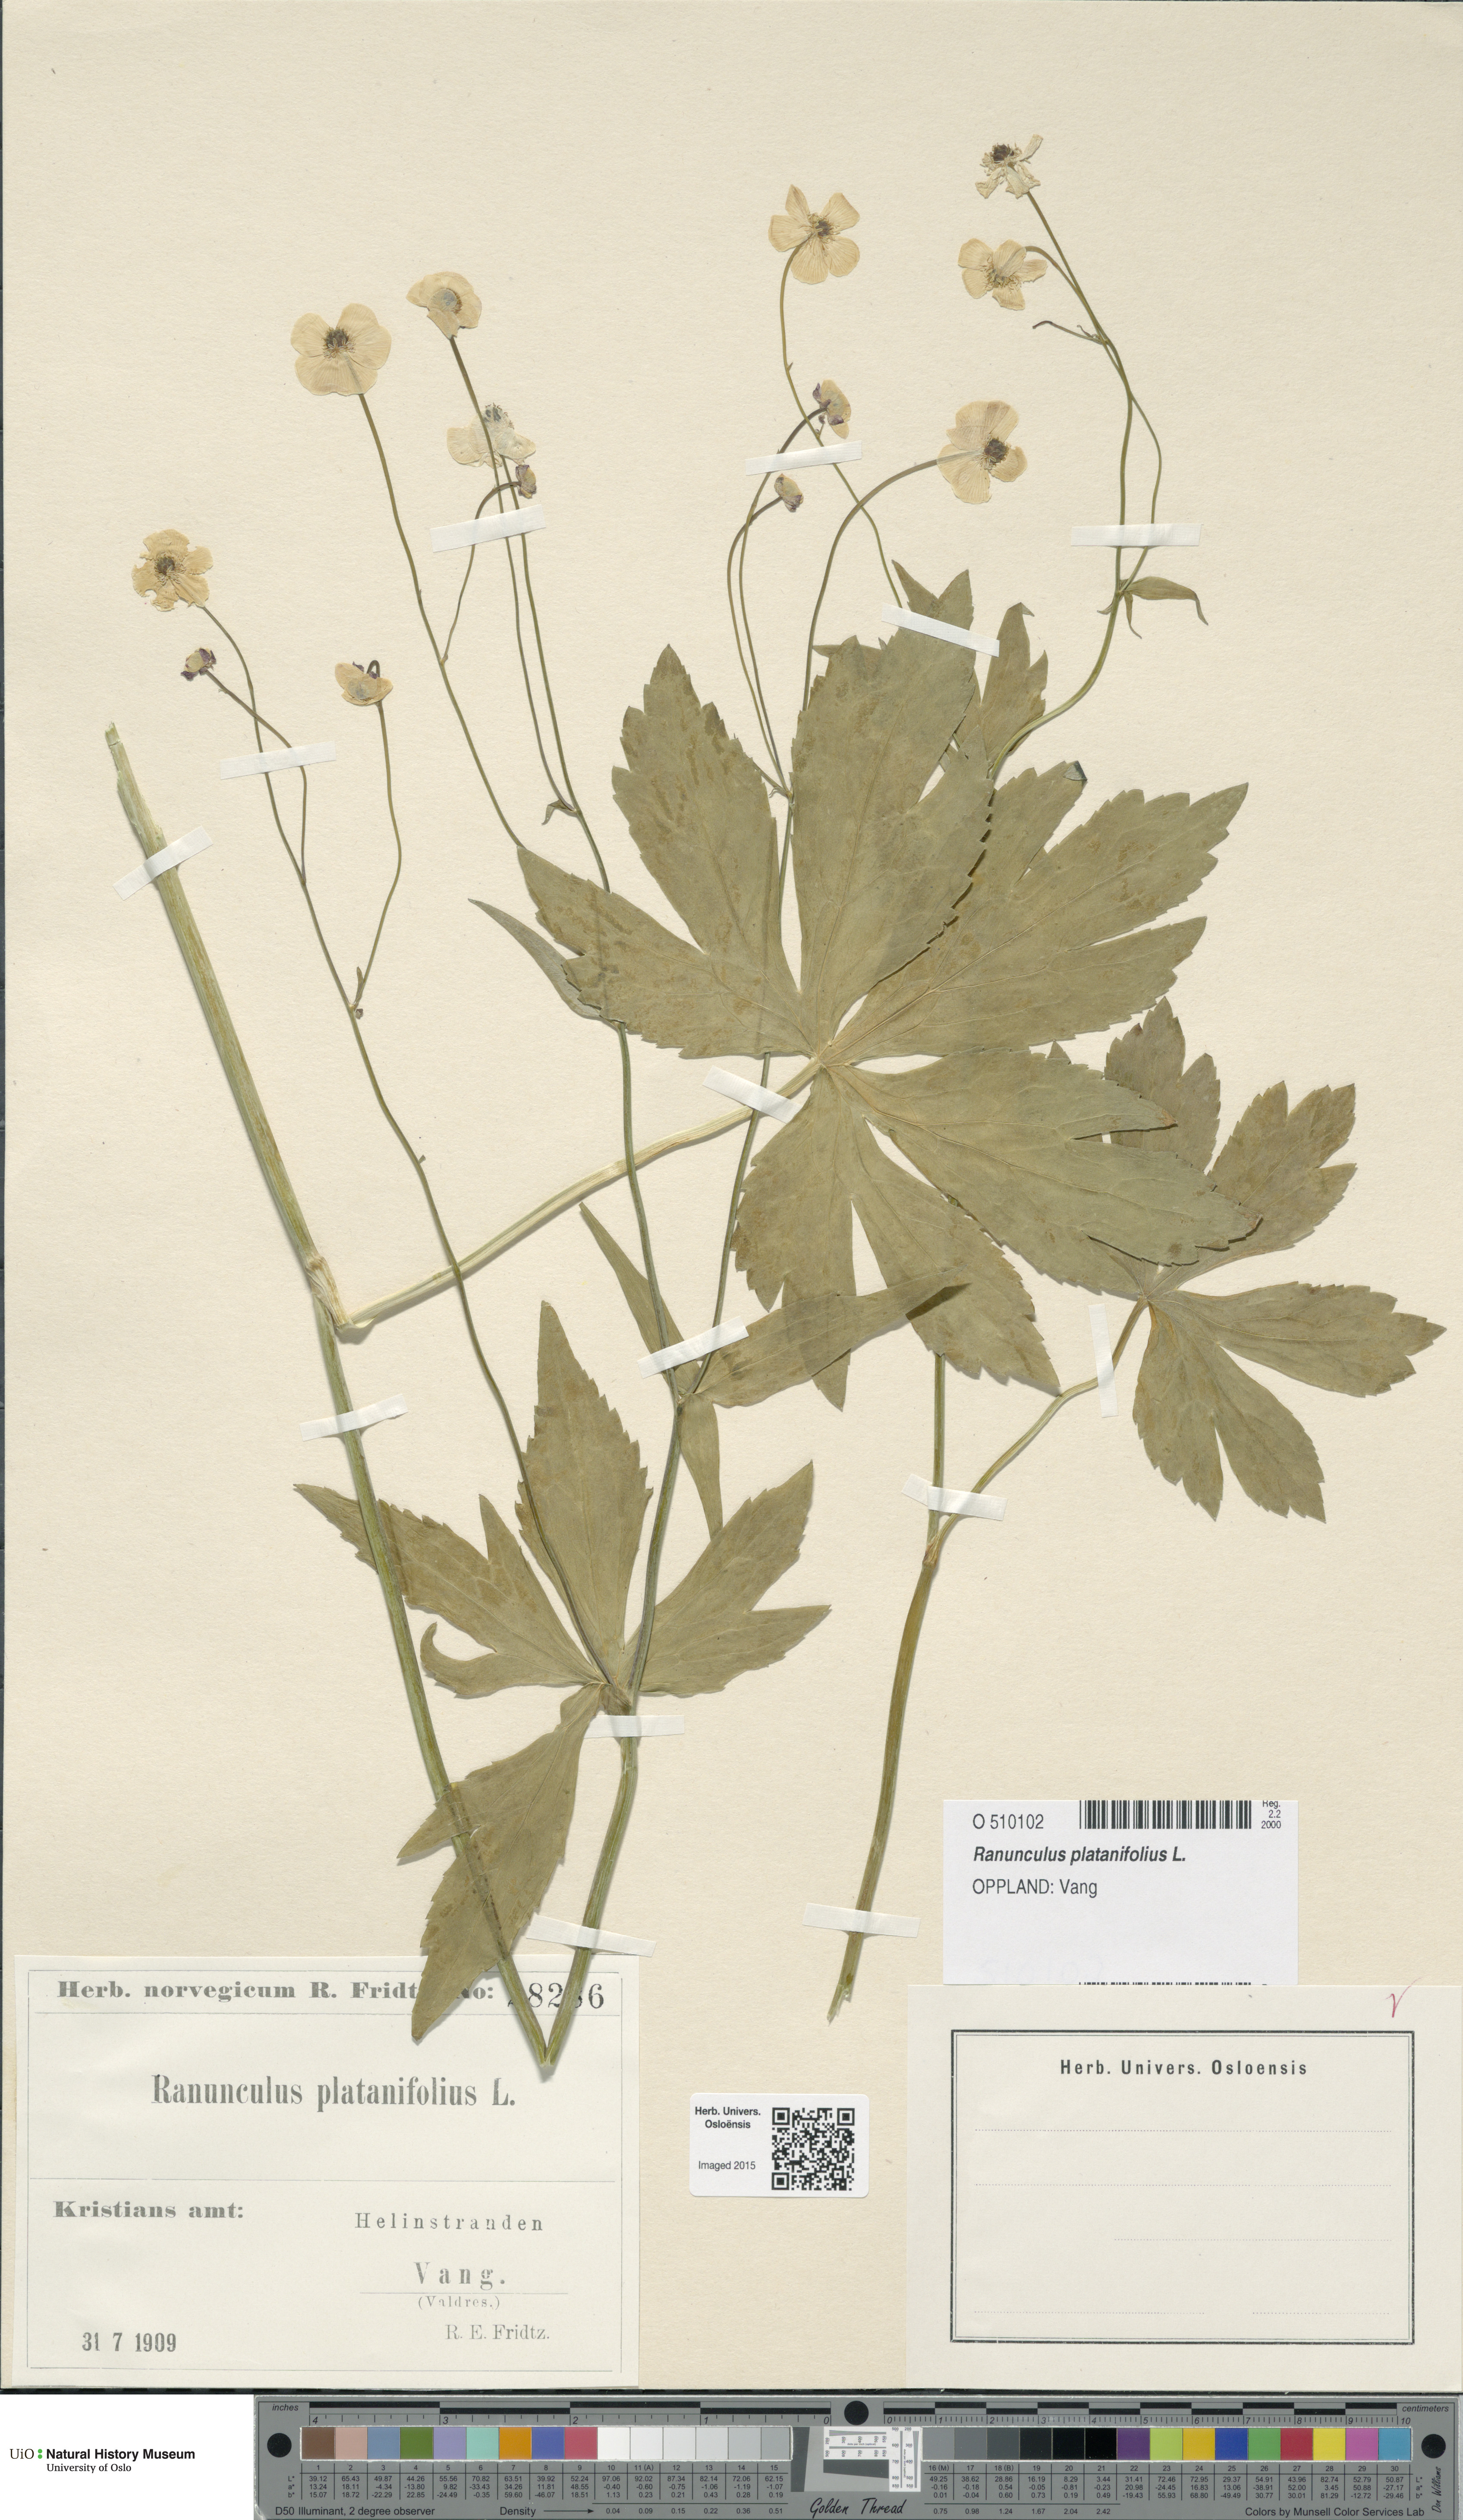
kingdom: Plantae
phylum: Tracheophyta
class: Magnoliopsida
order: Ranunculales
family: Ranunculaceae
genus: Ranunculus
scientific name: Ranunculus platanifolius
